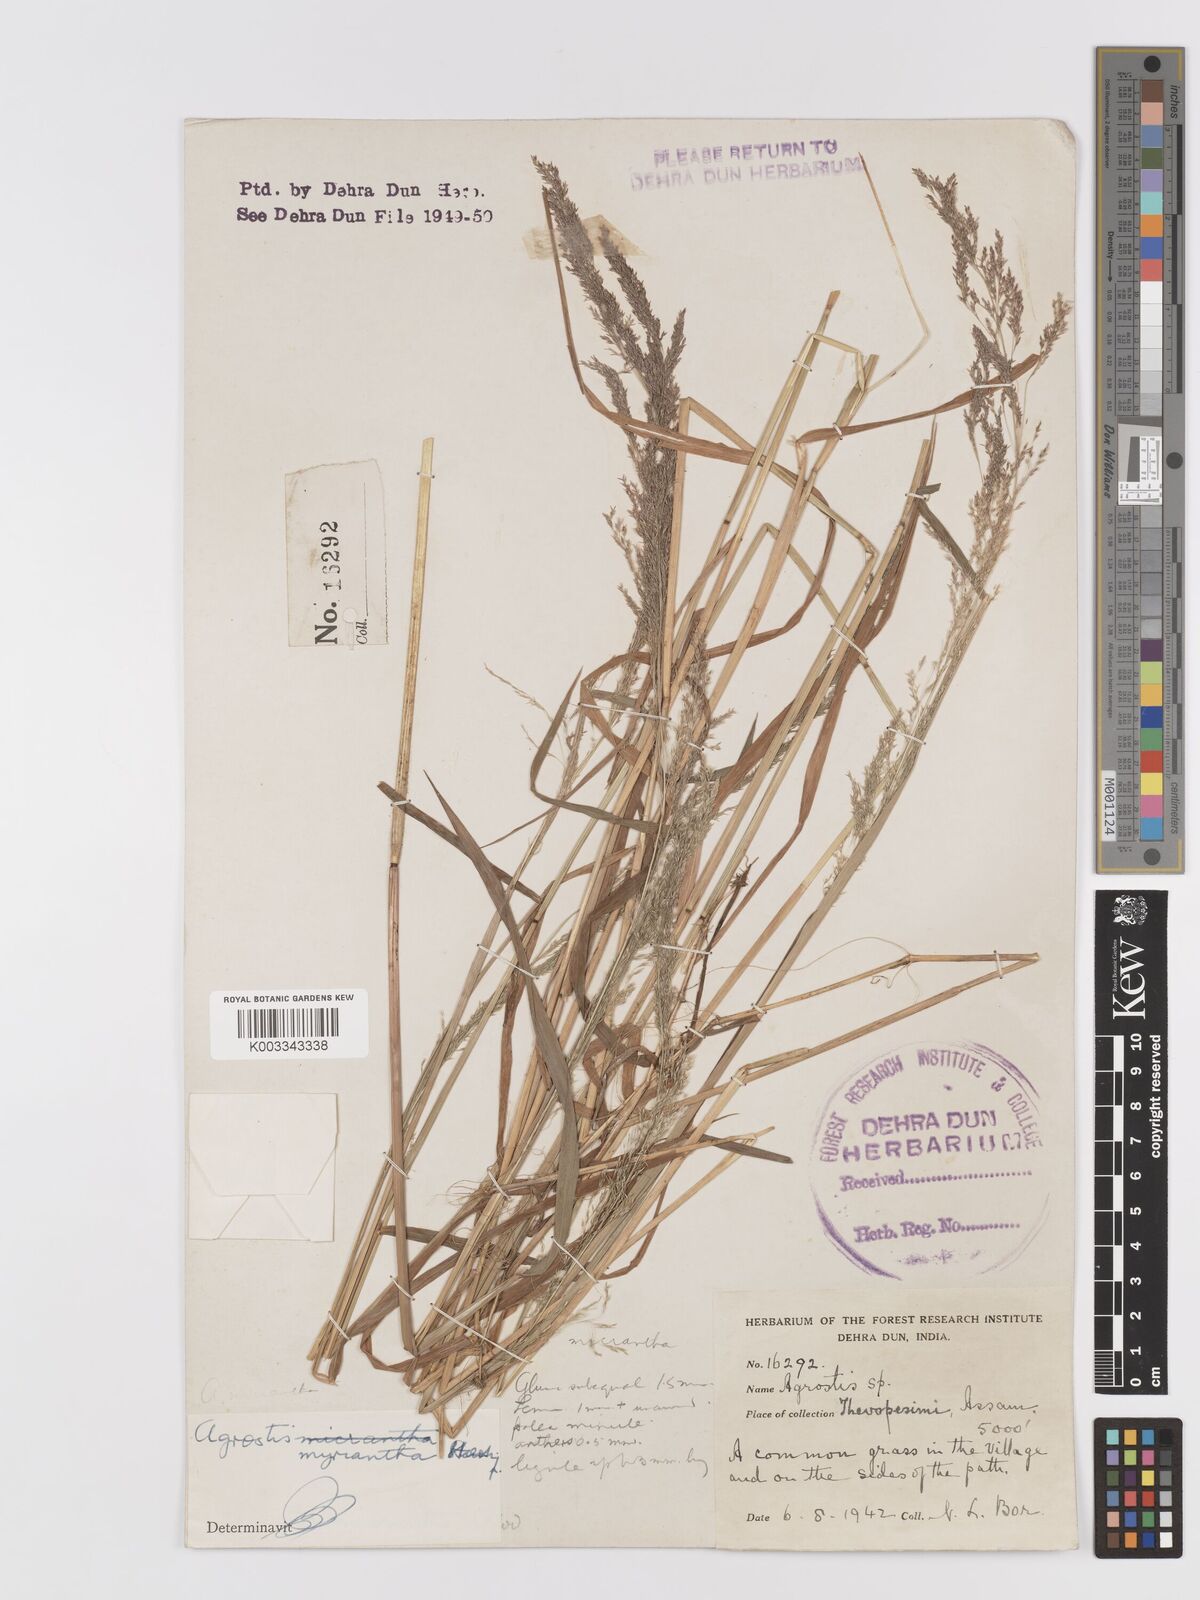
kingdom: Plantae
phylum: Tracheophyta
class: Liliopsida
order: Poales
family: Poaceae
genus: Agrostis
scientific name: Agrostis micrantha
